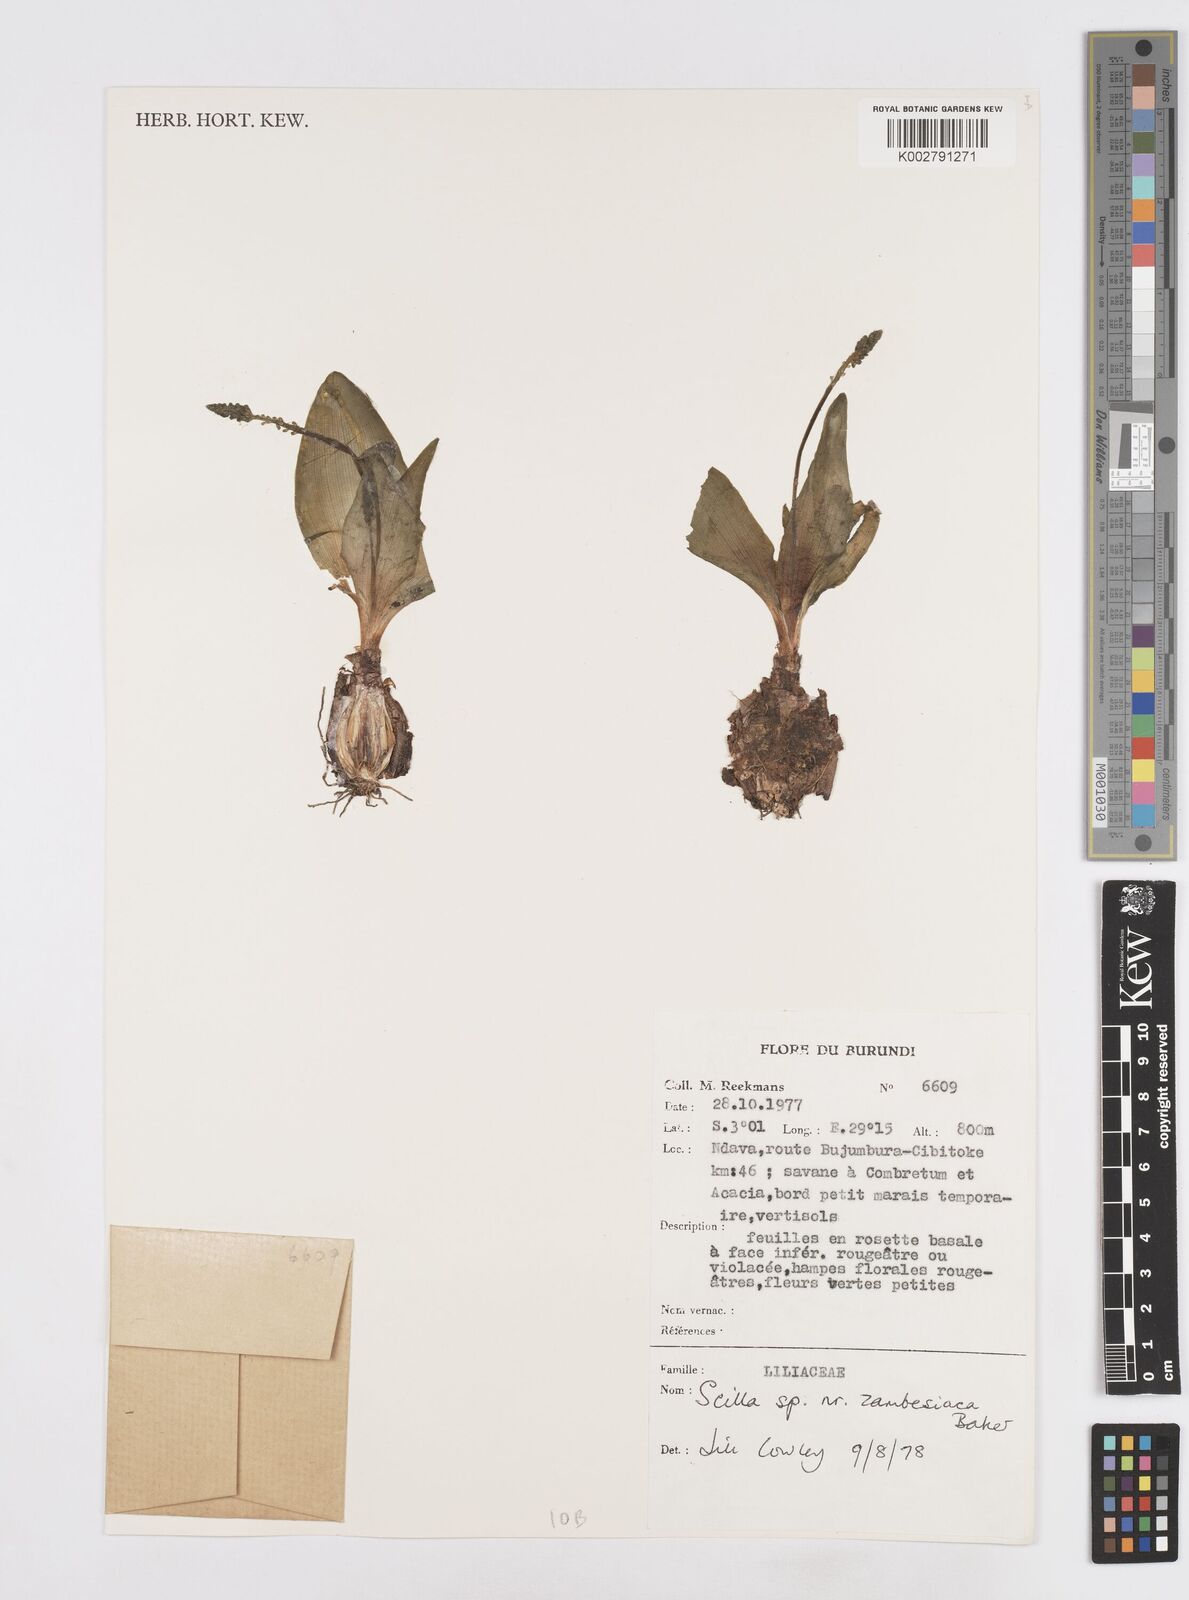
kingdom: Plantae
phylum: Tracheophyta
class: Liliopsida
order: Asparagales
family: Asparagaceae
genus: Ledebouria
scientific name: Ledebouria zambesiaca
